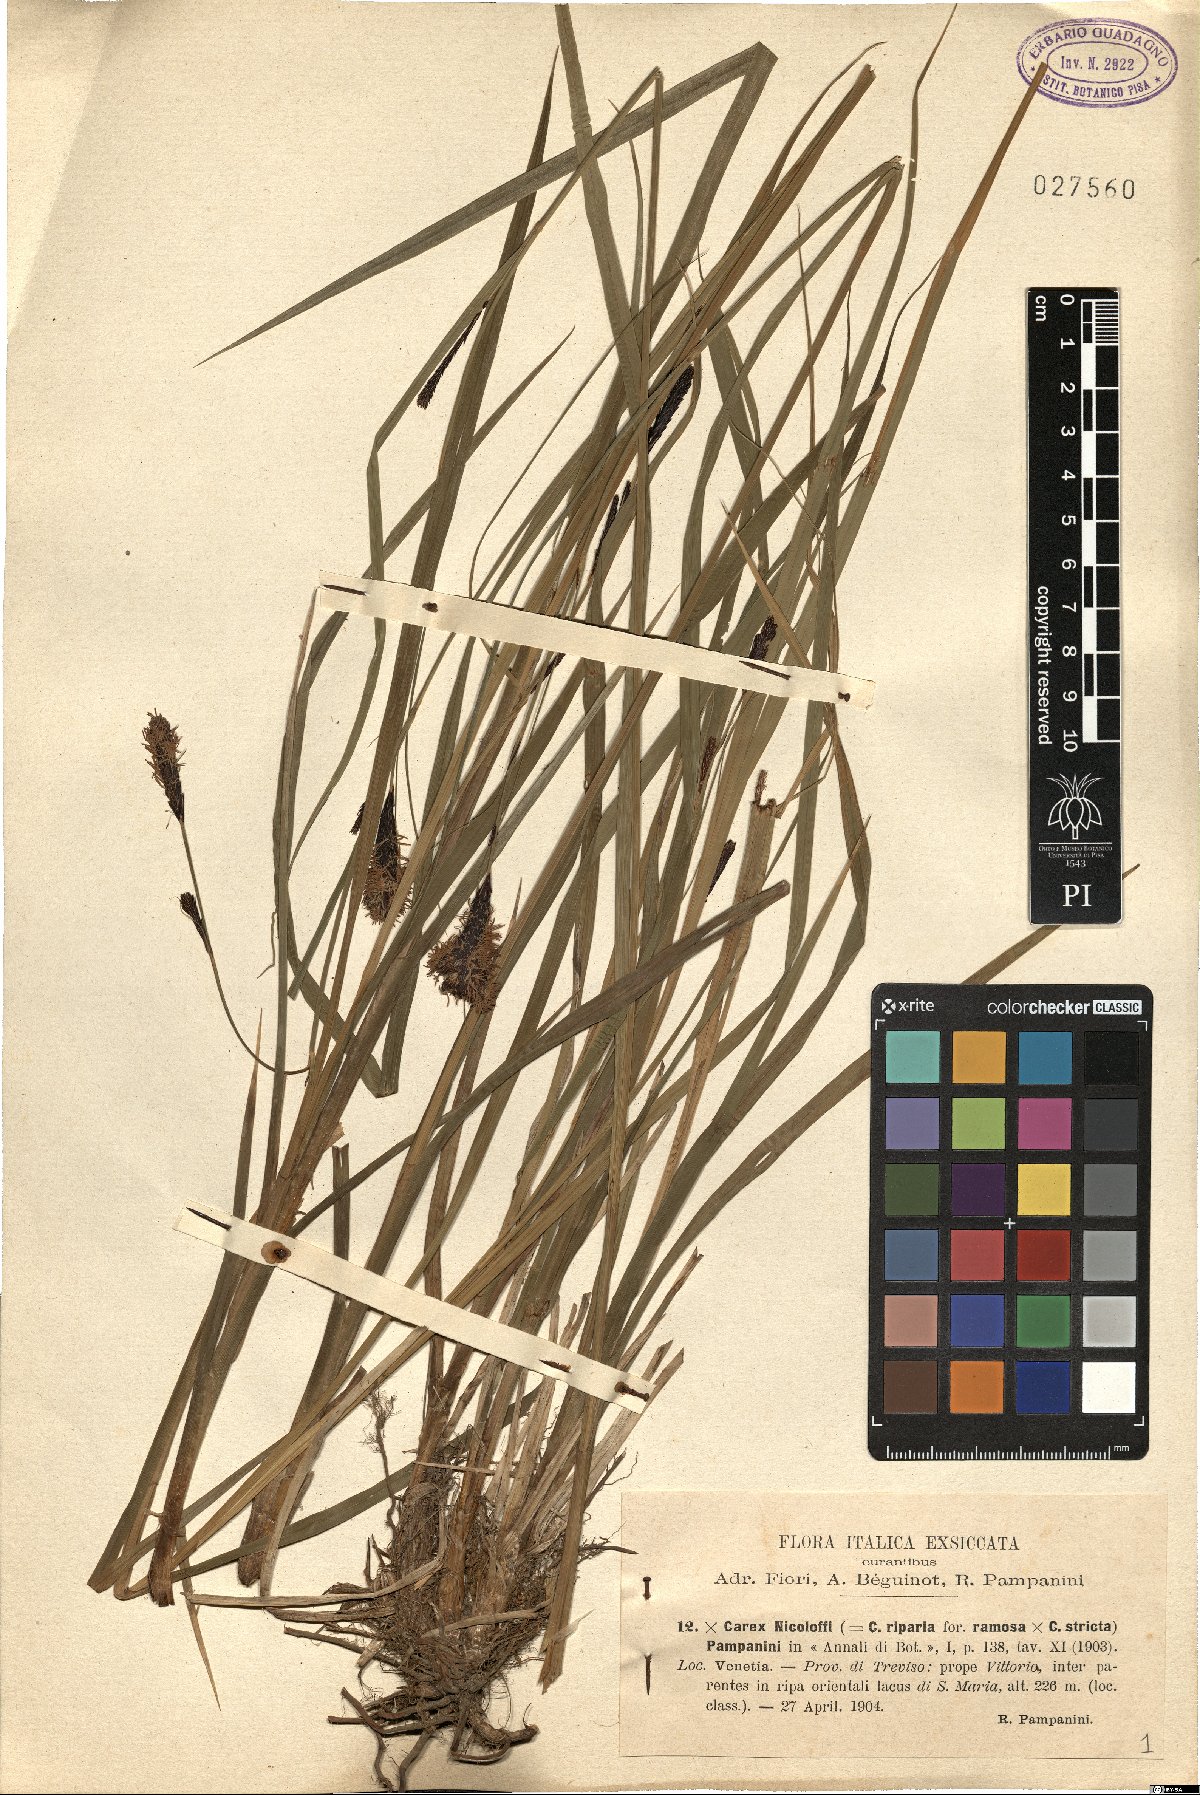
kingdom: Plantae
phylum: Tracheophyta
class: Liliopsida
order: Poales
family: Cyperaceae
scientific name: Cyperaceae
